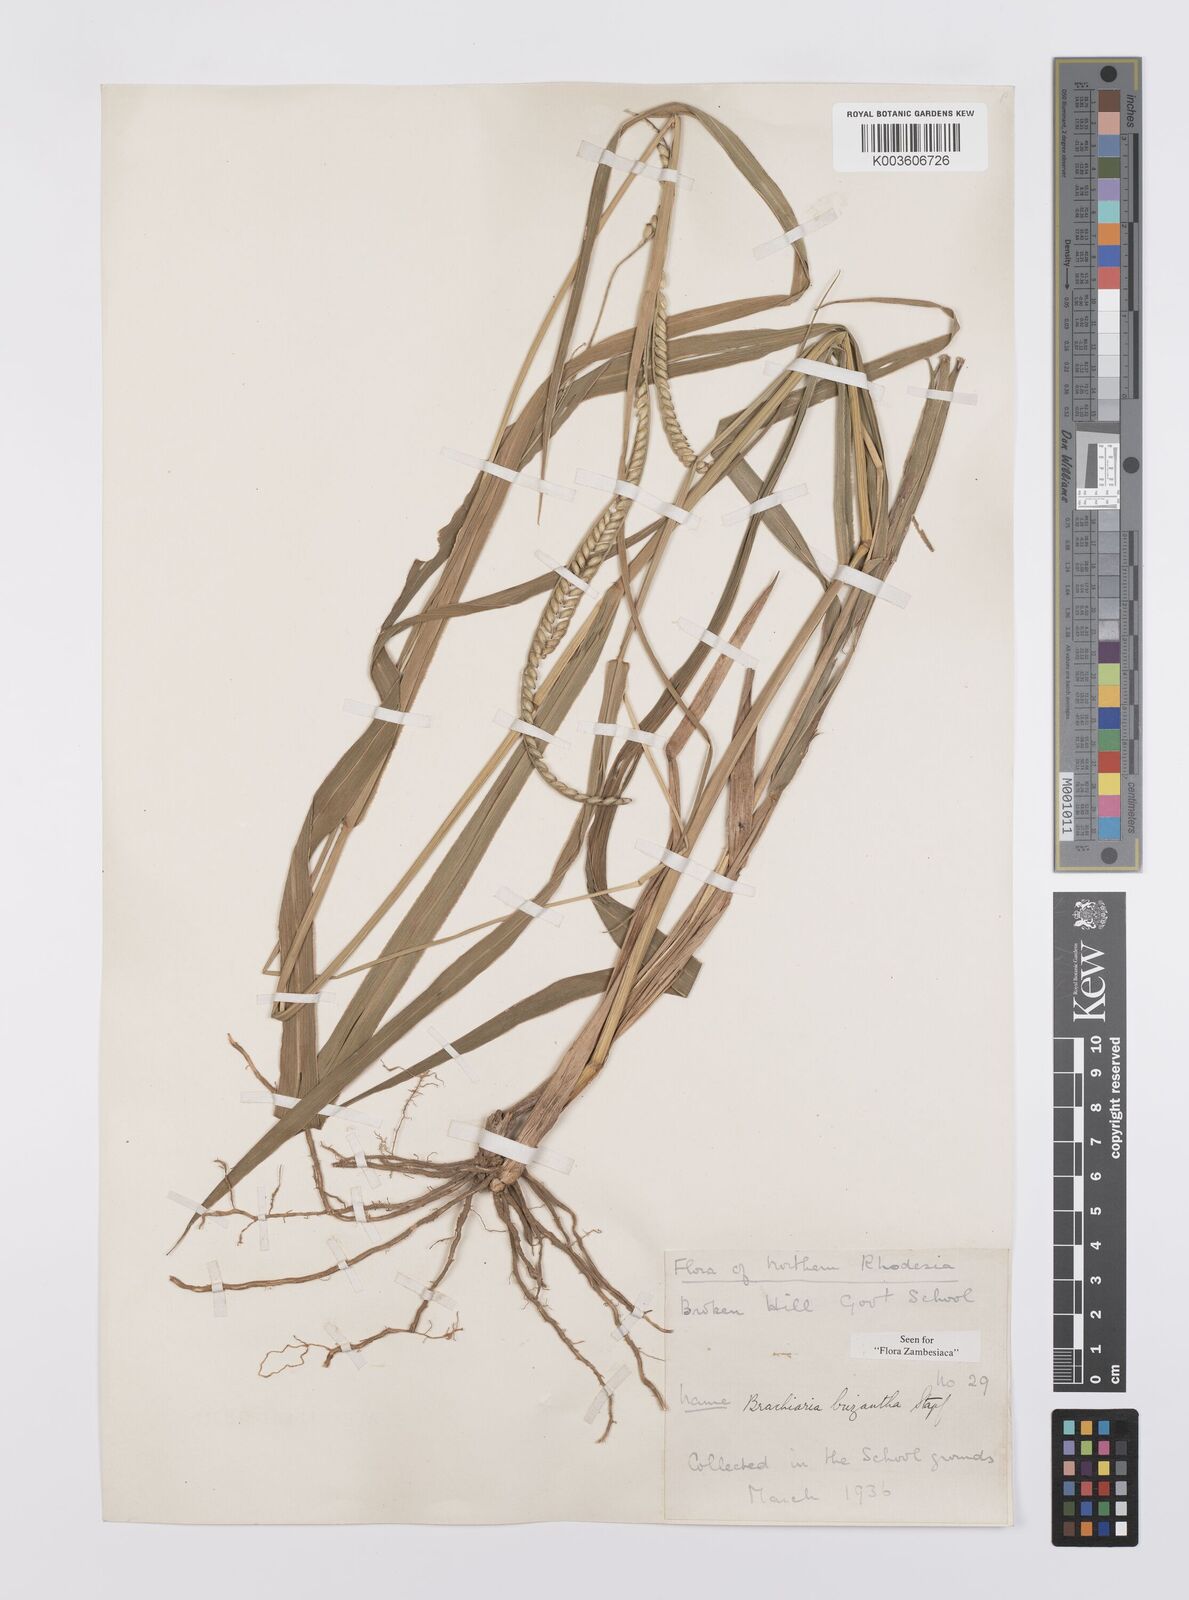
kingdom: Plantae
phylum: Tracheophyta
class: Liliopsida
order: Poales
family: Poaceae
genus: Urochloa
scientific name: Urochloa brizantha
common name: Palisade signalgrass
